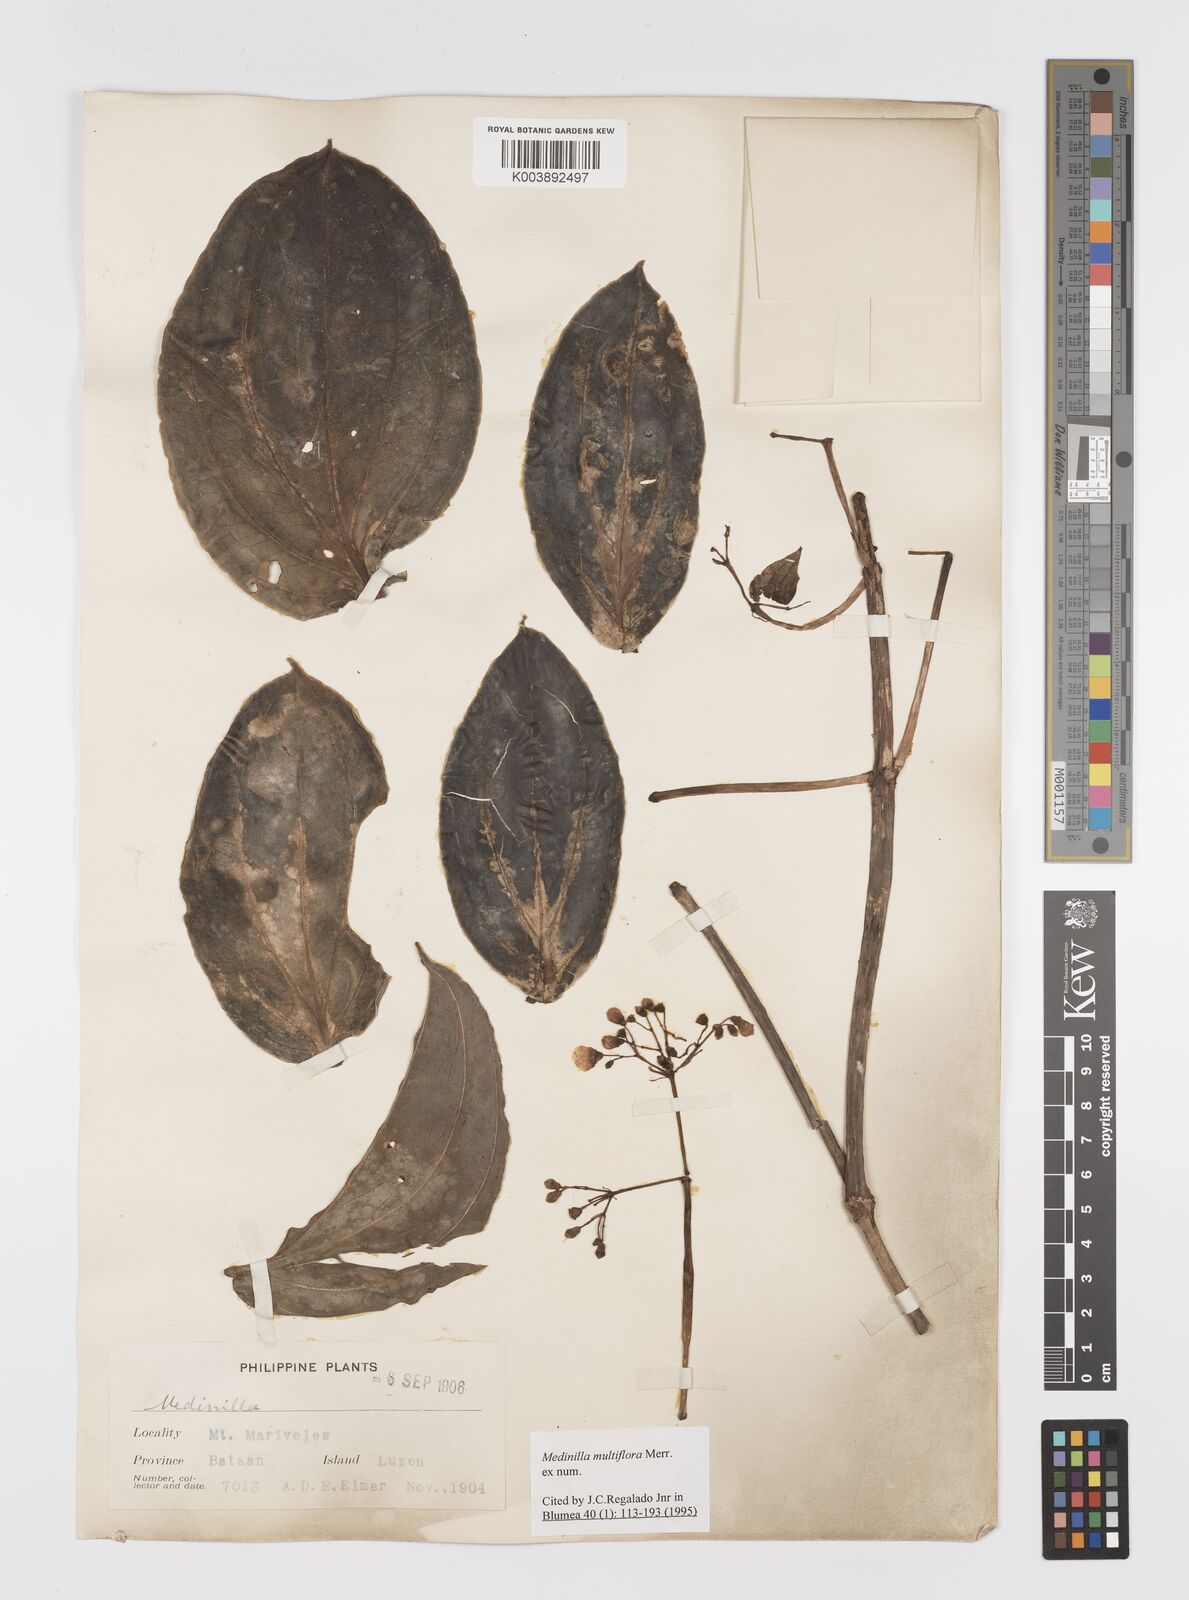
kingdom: Plantae
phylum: Tracheophyta
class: Magnoliopsida
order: Myrtales
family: Melastomataceae
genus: Medinilla
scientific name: Medinilla multiflora
